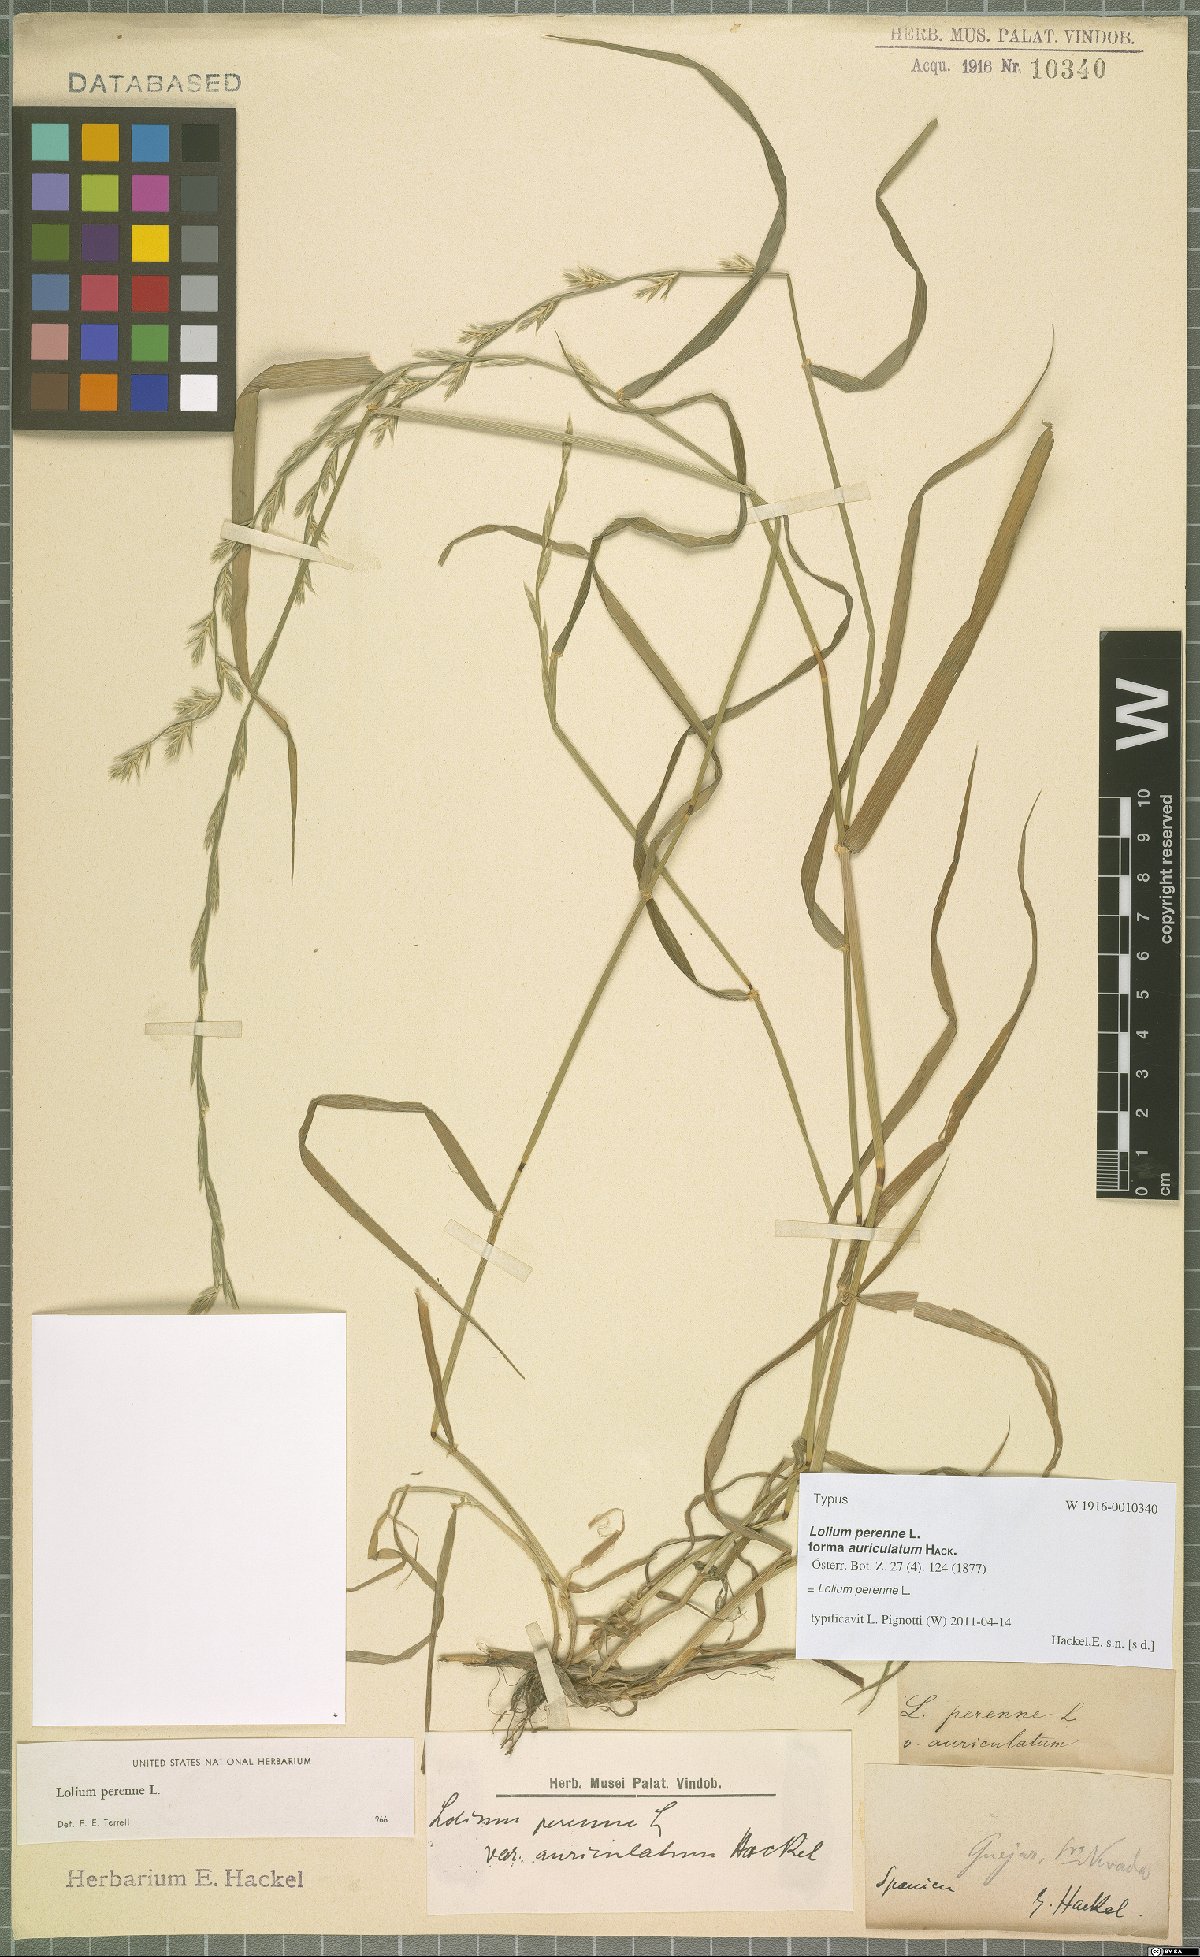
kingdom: Plantae
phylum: Tracheophyta
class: Liliopsida
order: Poales
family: Poaceae
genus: Lolium
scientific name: Lolium perenne
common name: Perennial ryegrass
